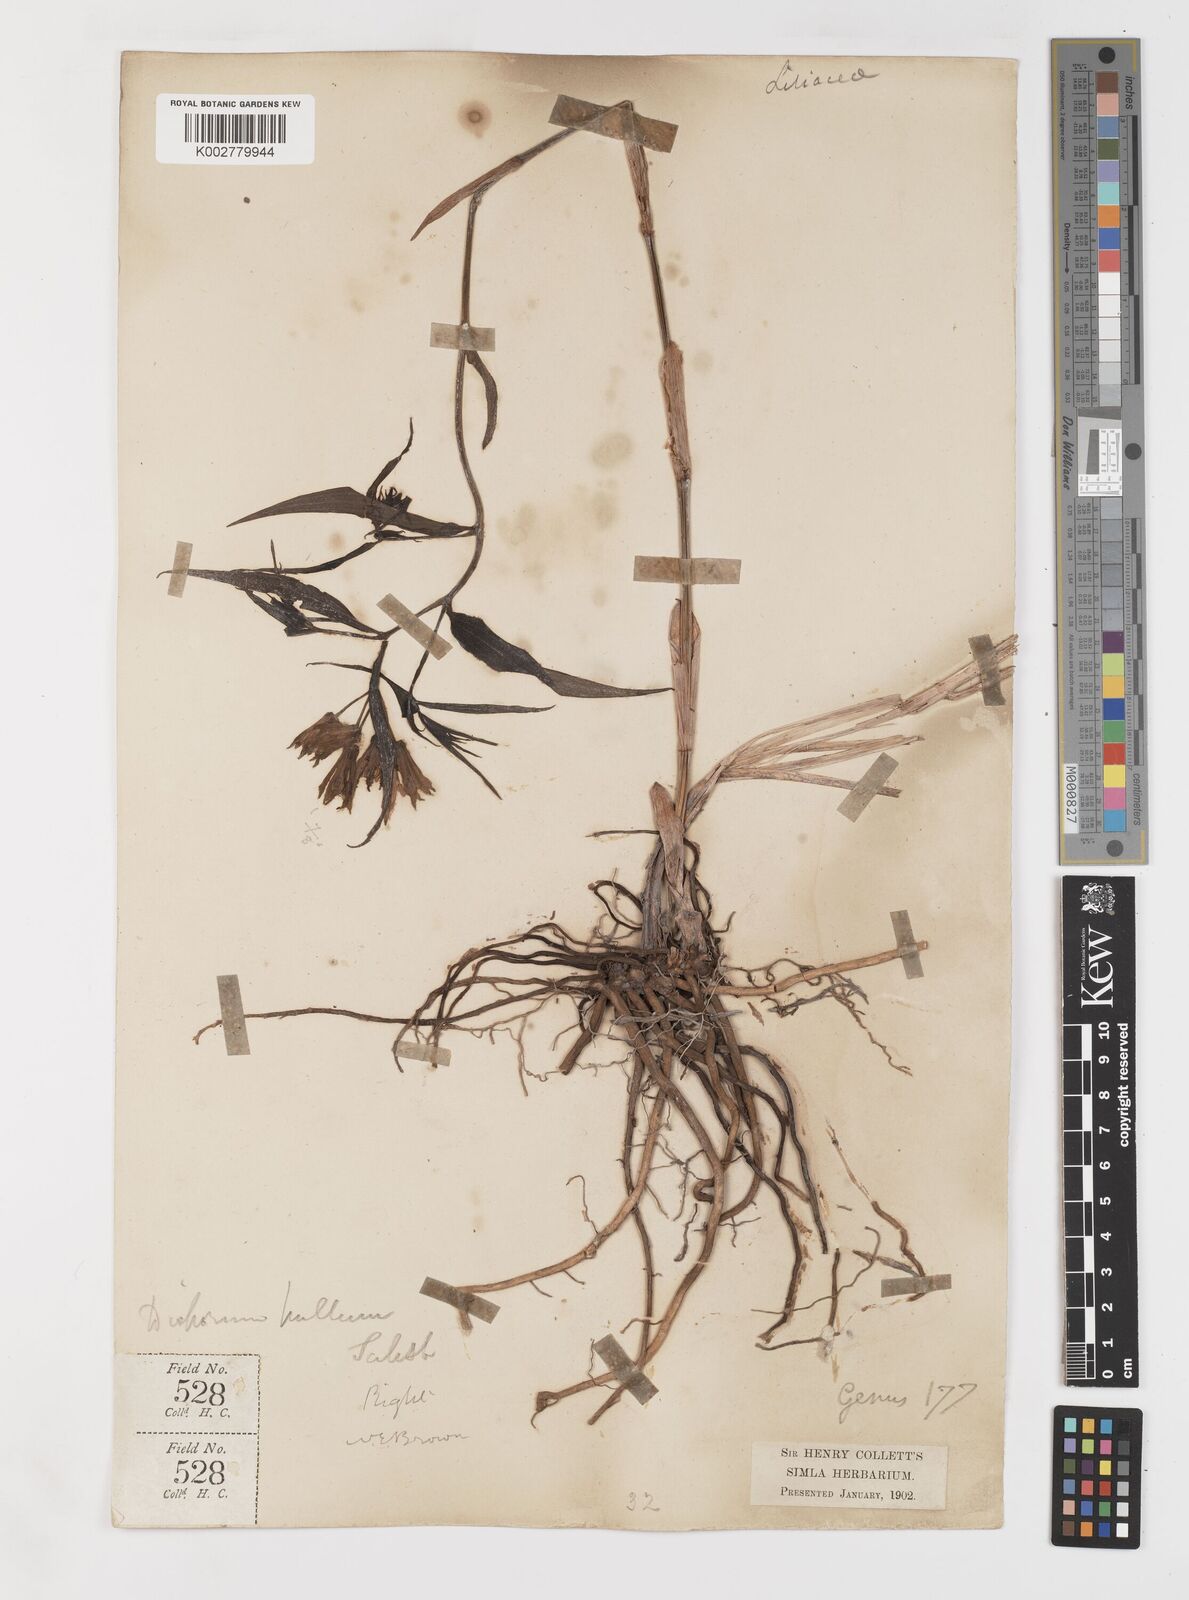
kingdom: Plantae
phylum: Tracheophyta
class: Liliopsida
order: Liliales
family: Colchicaceae
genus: Disporum
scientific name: Disporum cantoniense
